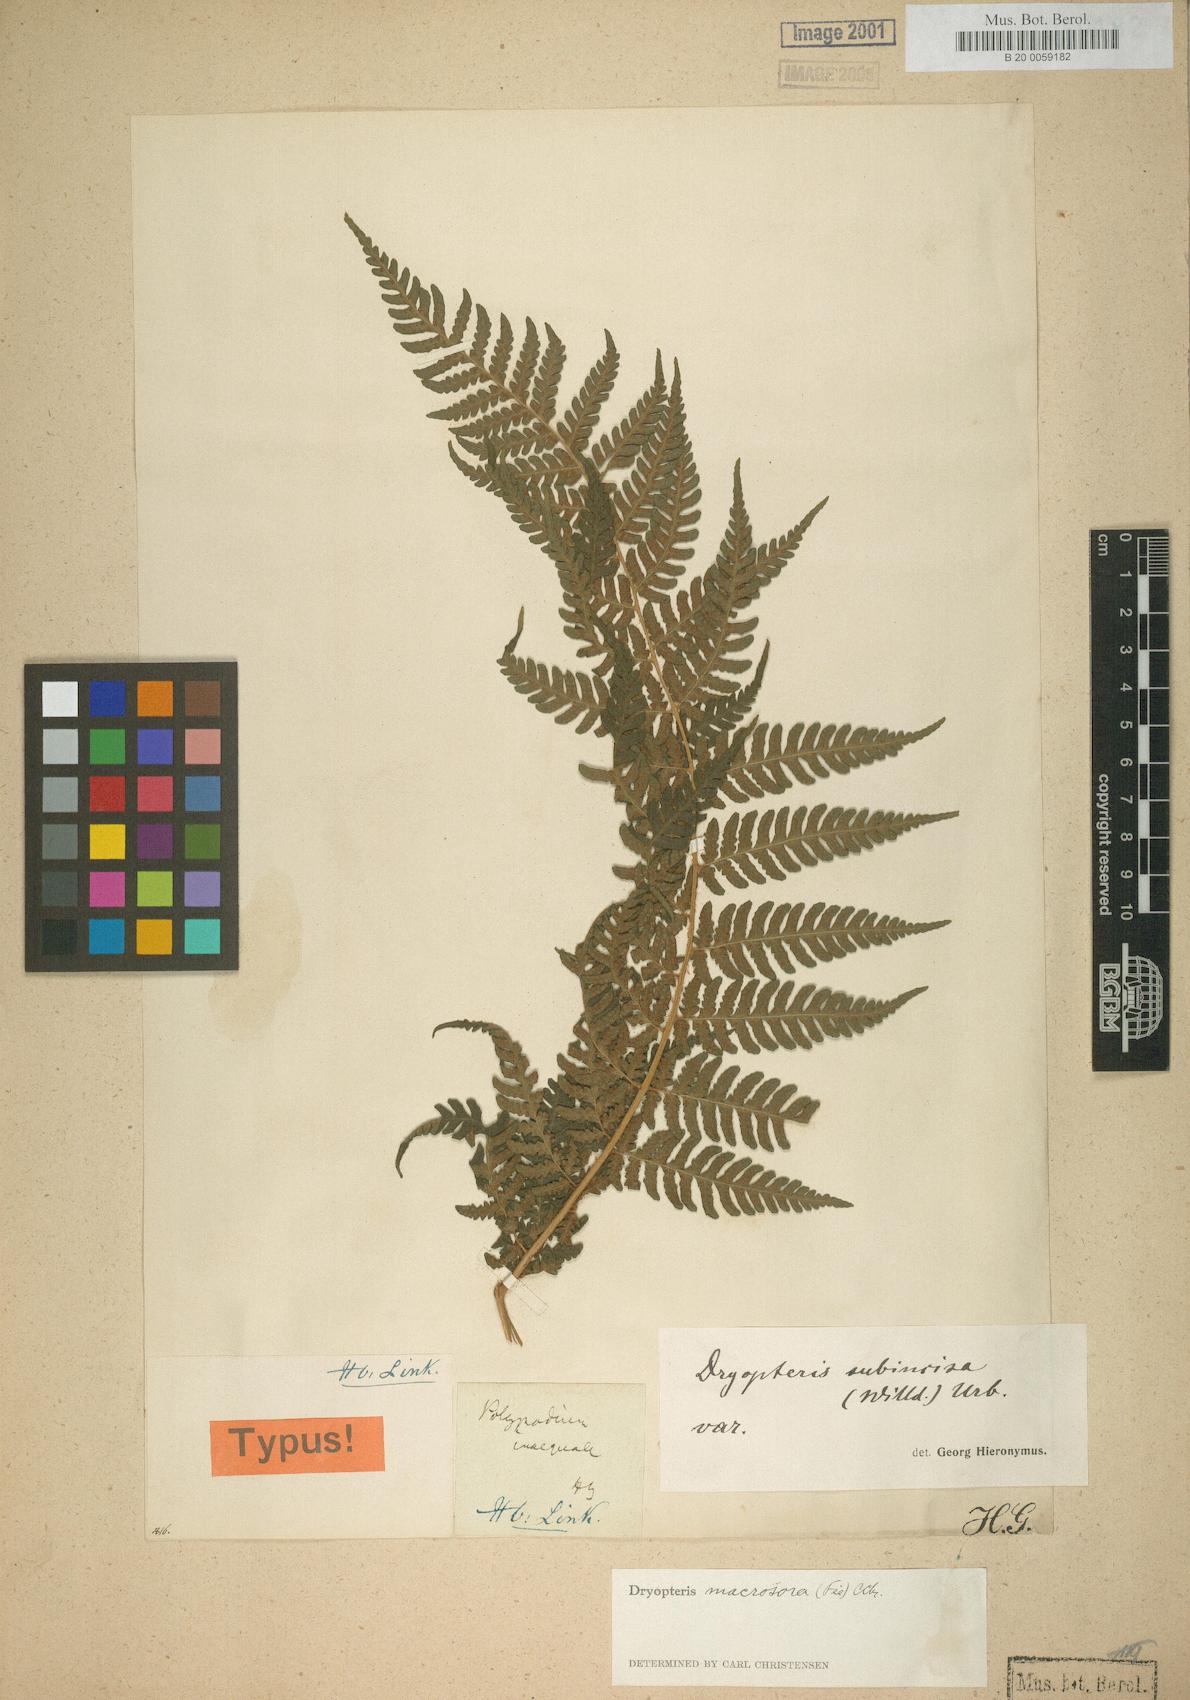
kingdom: Plantae
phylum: Tracheophyta
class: Polypodiopsida
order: Polypodiales
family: Dryopteridaceae
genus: Megalastrum
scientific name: Megalastrum inaequale
